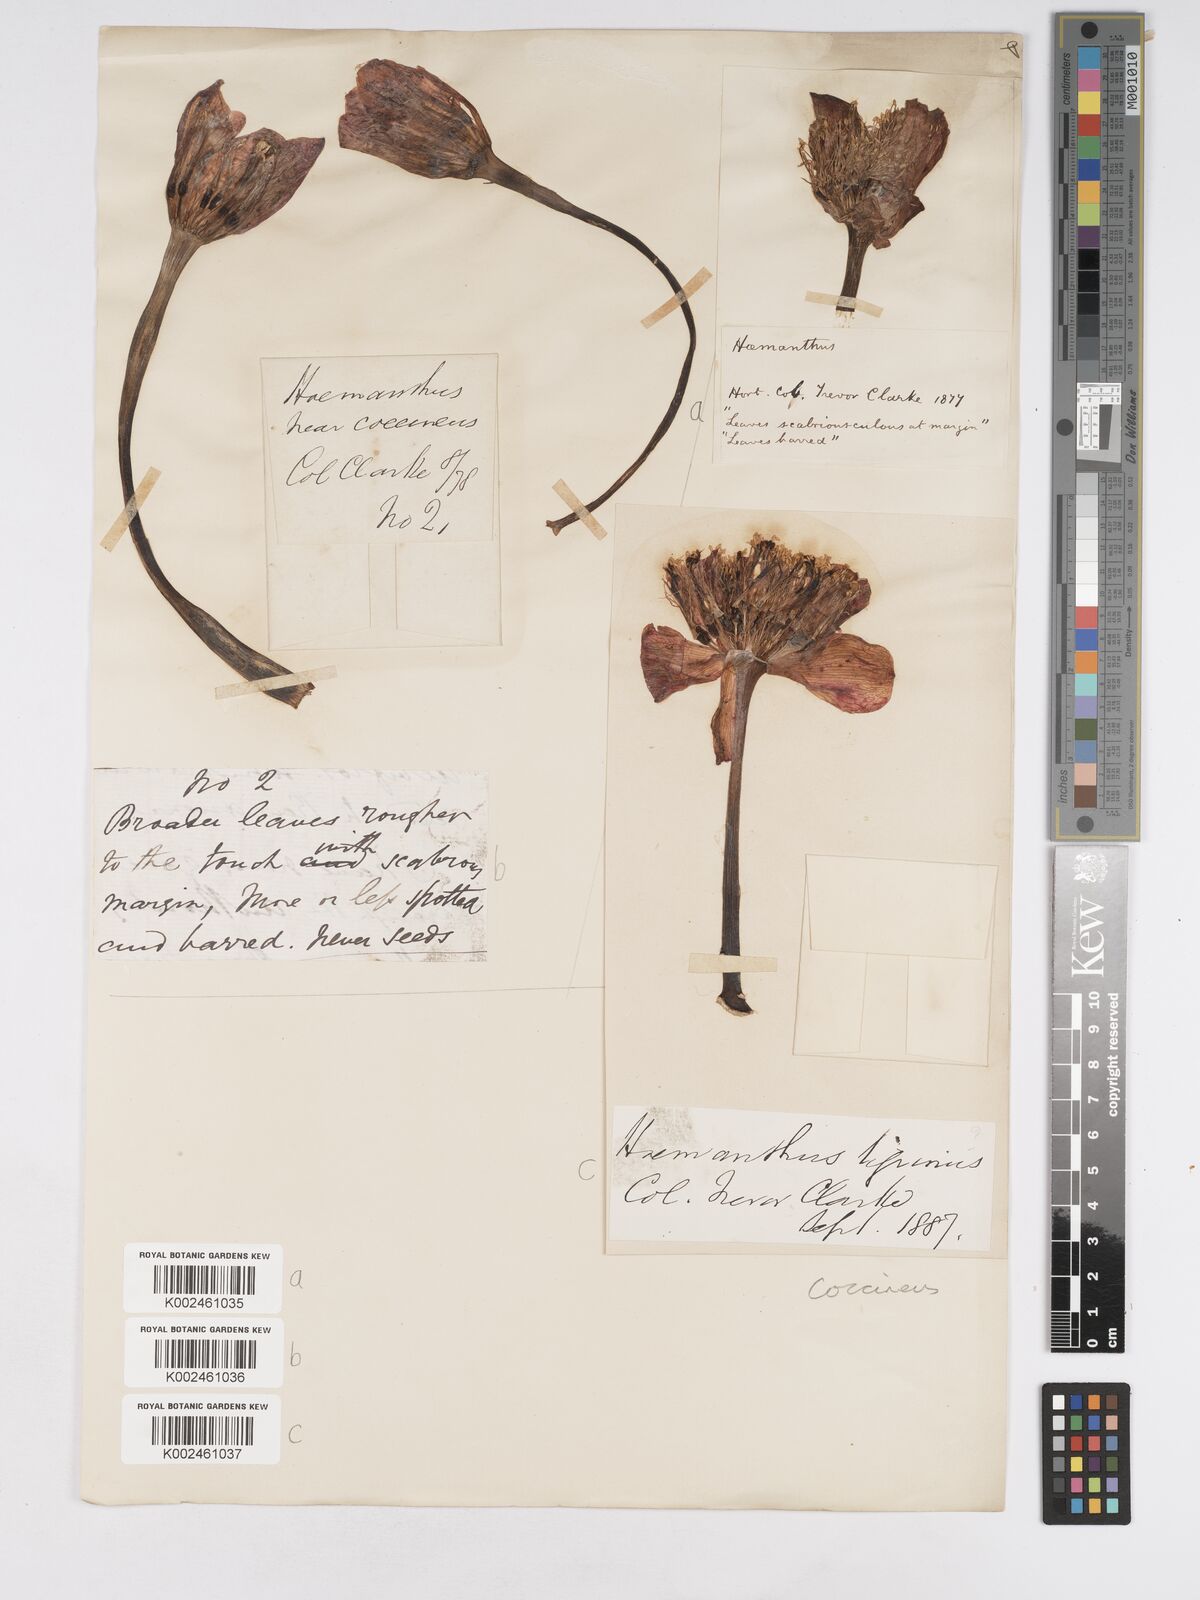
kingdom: Plantae
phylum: Tracheophyta
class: Liliopsida
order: Asparagales
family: Amaryllidaceae
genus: Haemanthus
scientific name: Haemanthus coccineus
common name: Cape-tulip
